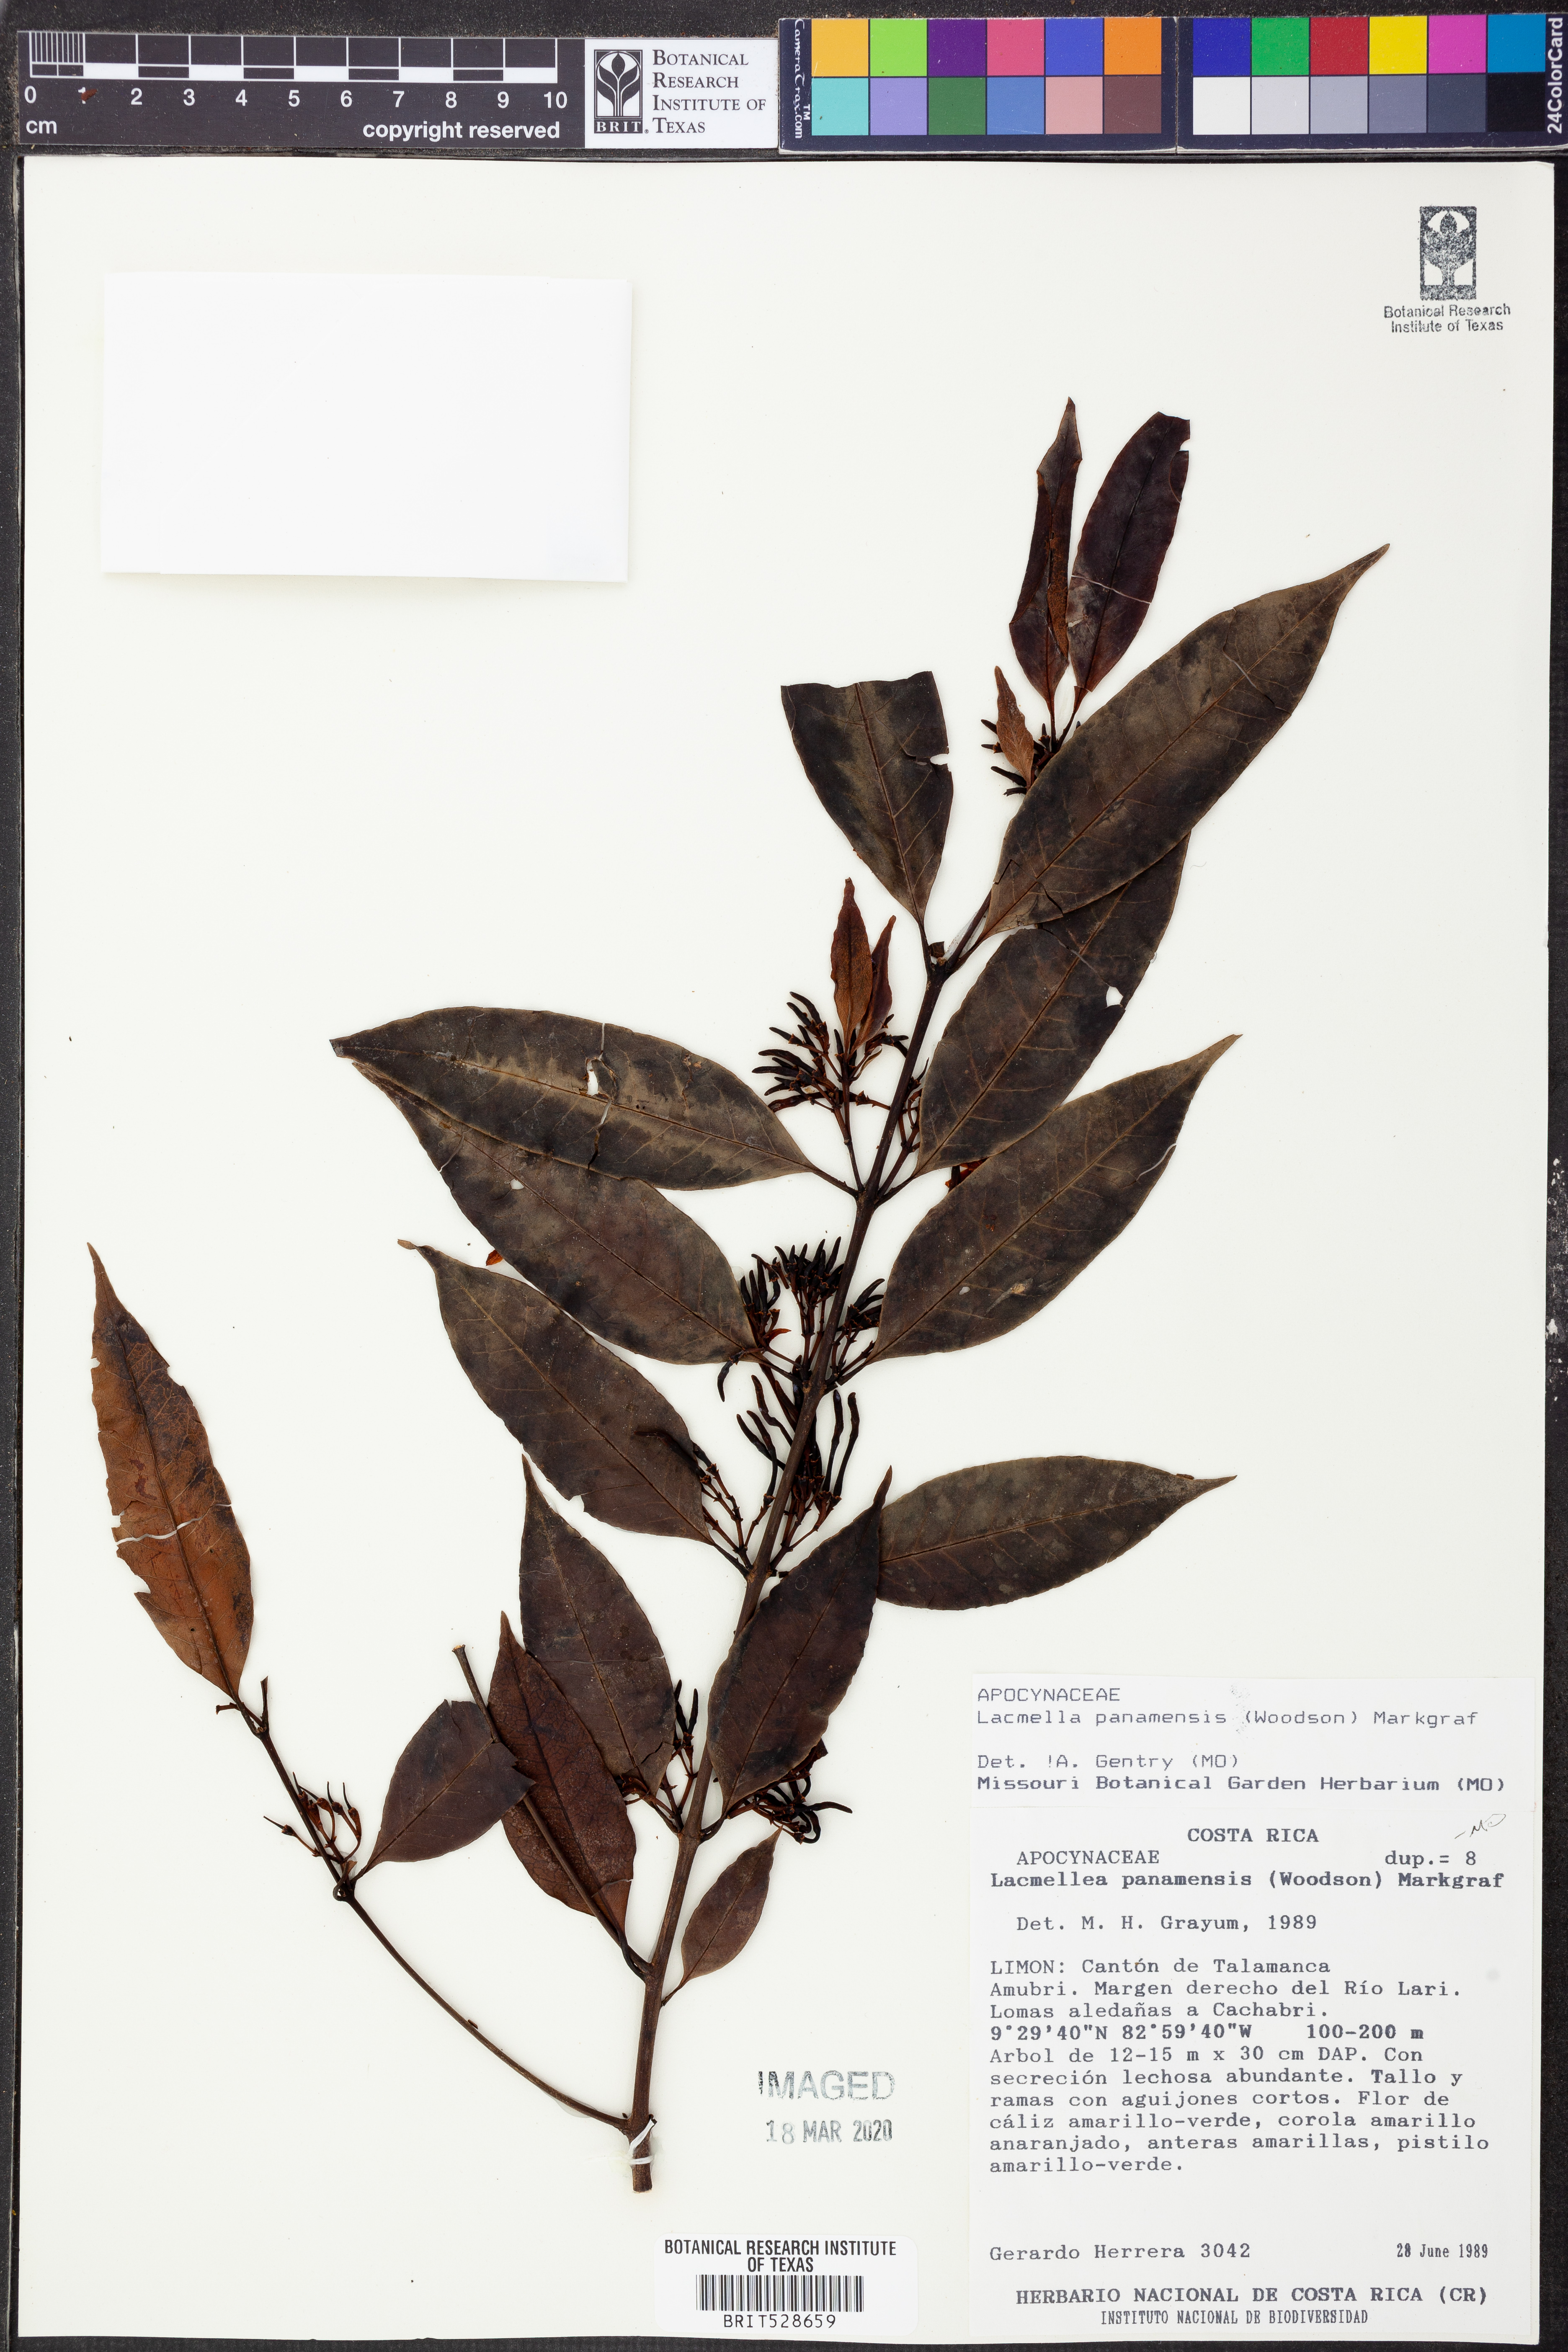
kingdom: Plantae
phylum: Tracheophyta
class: Magnoliopsida
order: Gentianales
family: Apocynaceae
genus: Lacmellea
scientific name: Lacmellea panamensis
